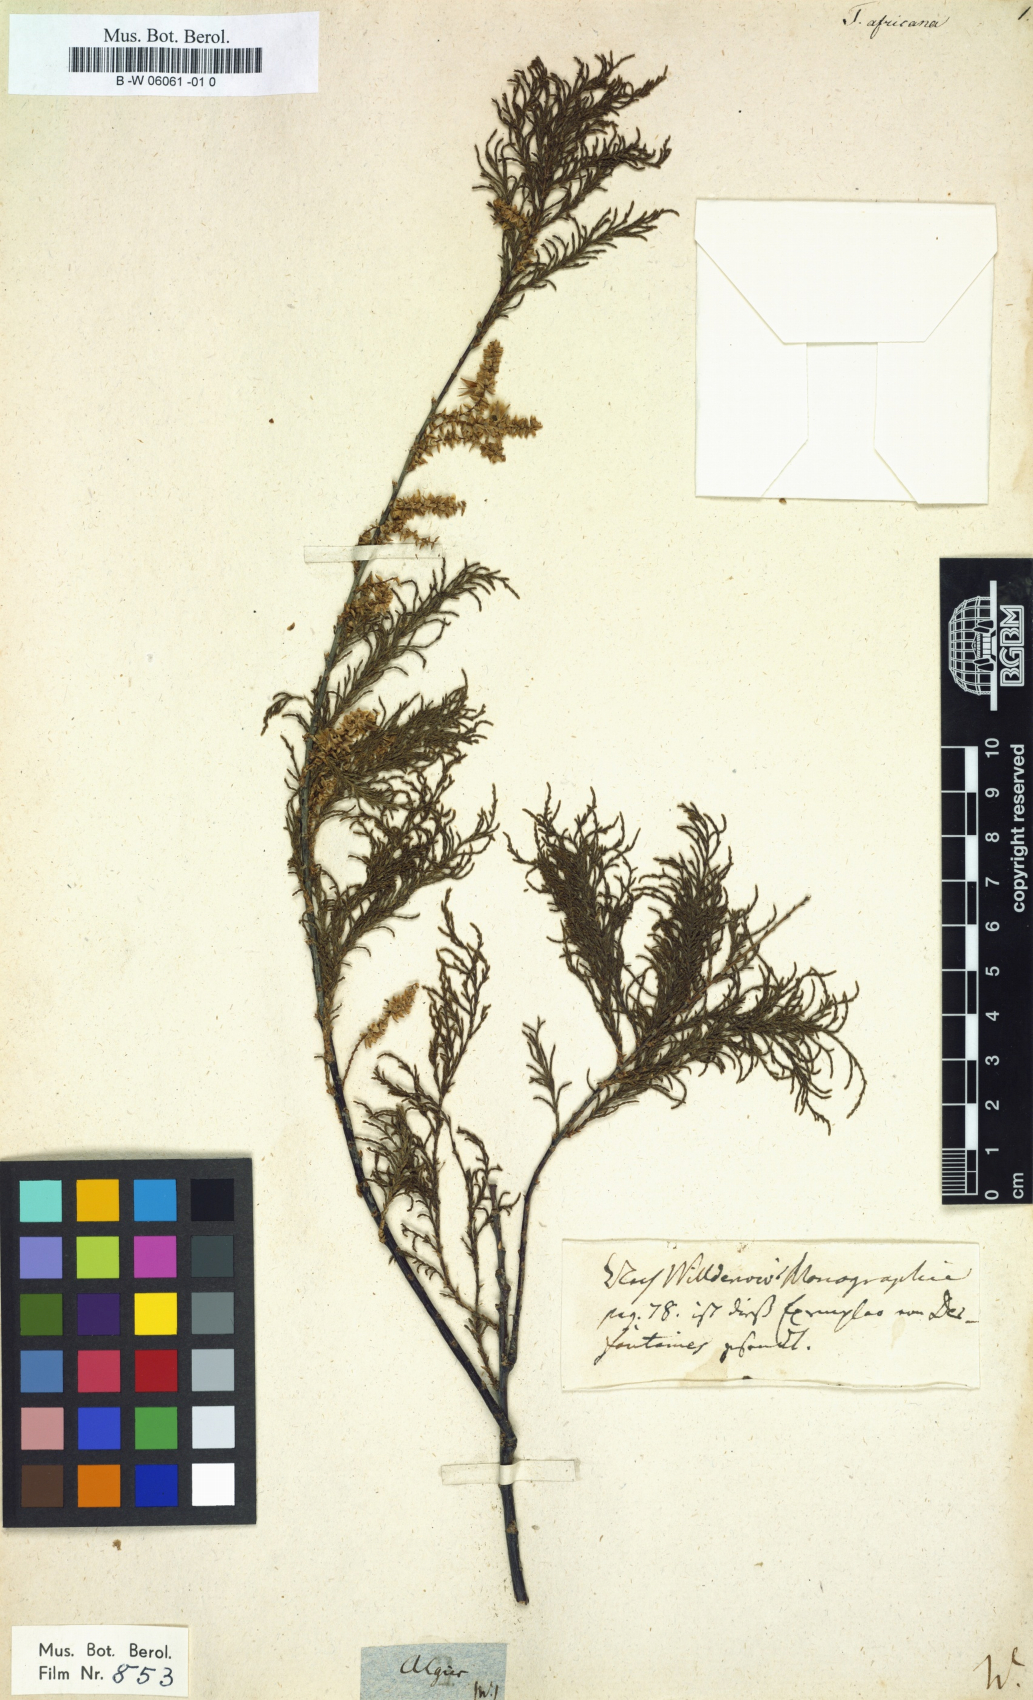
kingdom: Plantae
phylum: Tracheophyta
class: Magnoliopsida
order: Caryophyllales
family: Tamaricaceae
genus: Tamarix
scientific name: Tamarix africana
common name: African tamarisk
